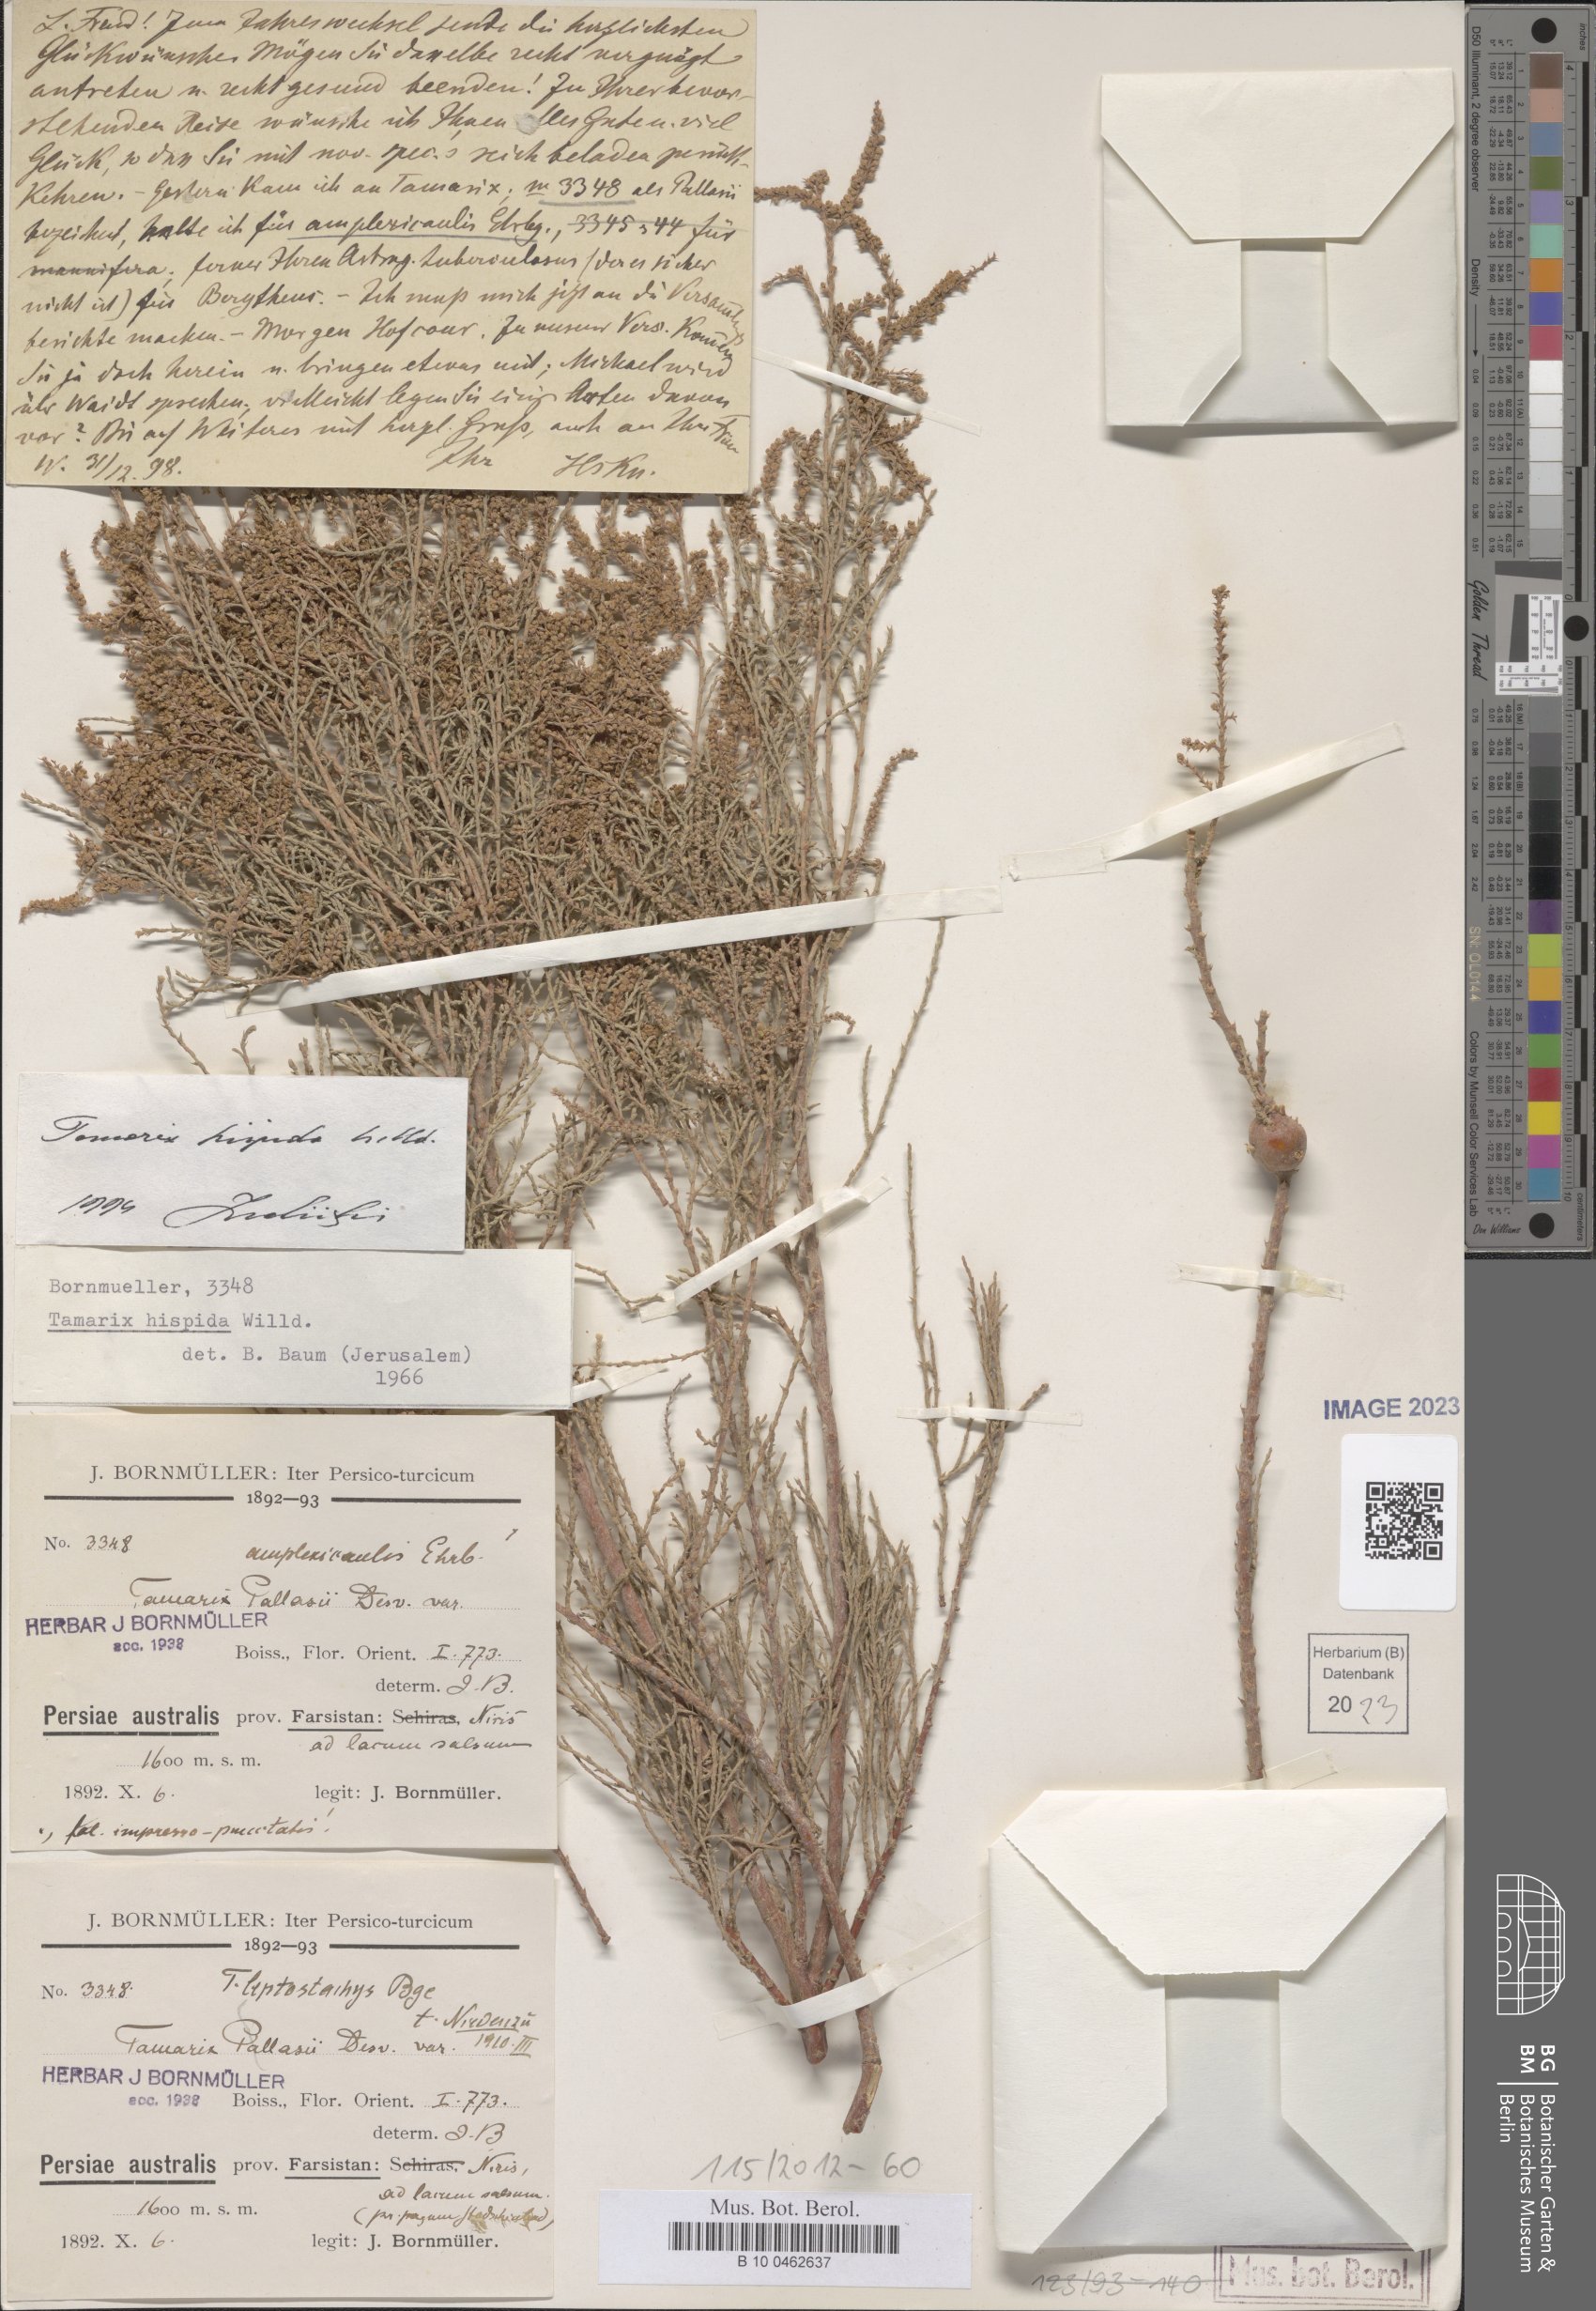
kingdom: Plantae
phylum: Tracheophyta
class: Magnoliopsida
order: Caryophyllales
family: Tamaricaceae
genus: Tamarix
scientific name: Tamarix hispida
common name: Kashgar tamarisk
